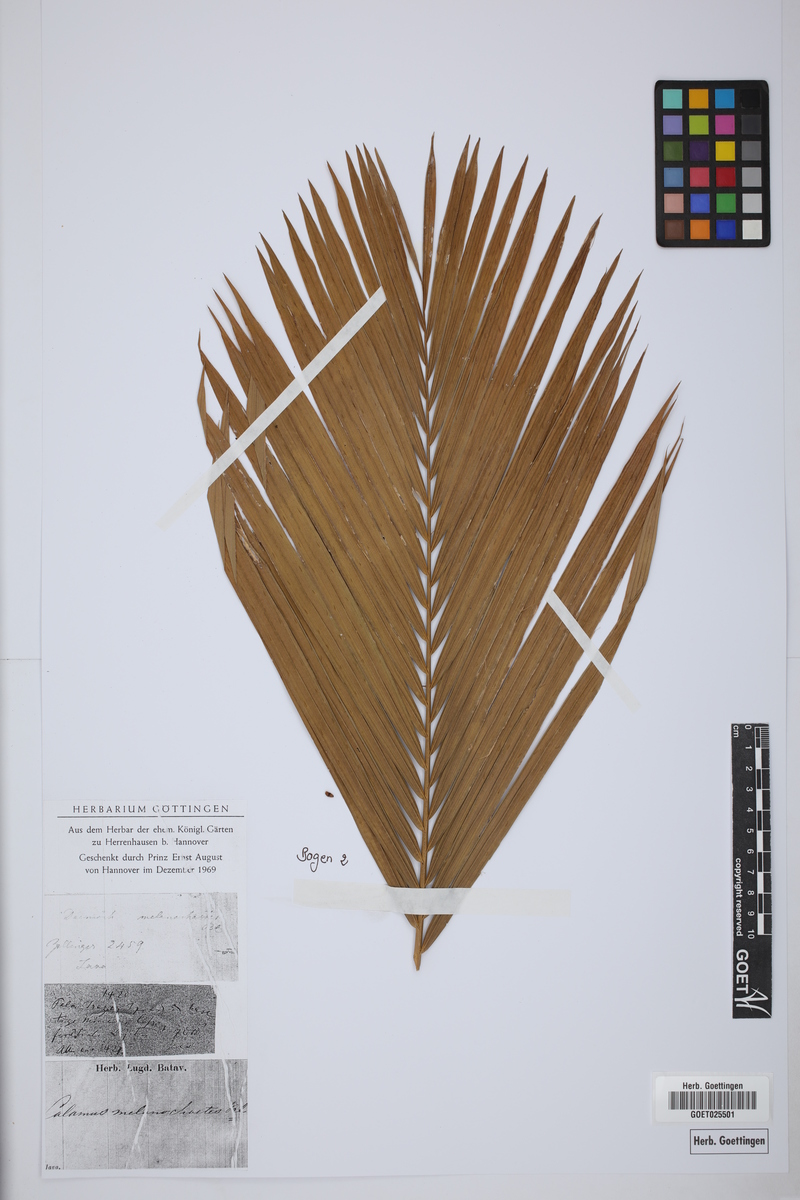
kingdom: Plantae
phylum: Tracheophyta
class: Liliopsida
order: Arecales
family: Arecaceae
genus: Calamus
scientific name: Calamus melanochaetes
